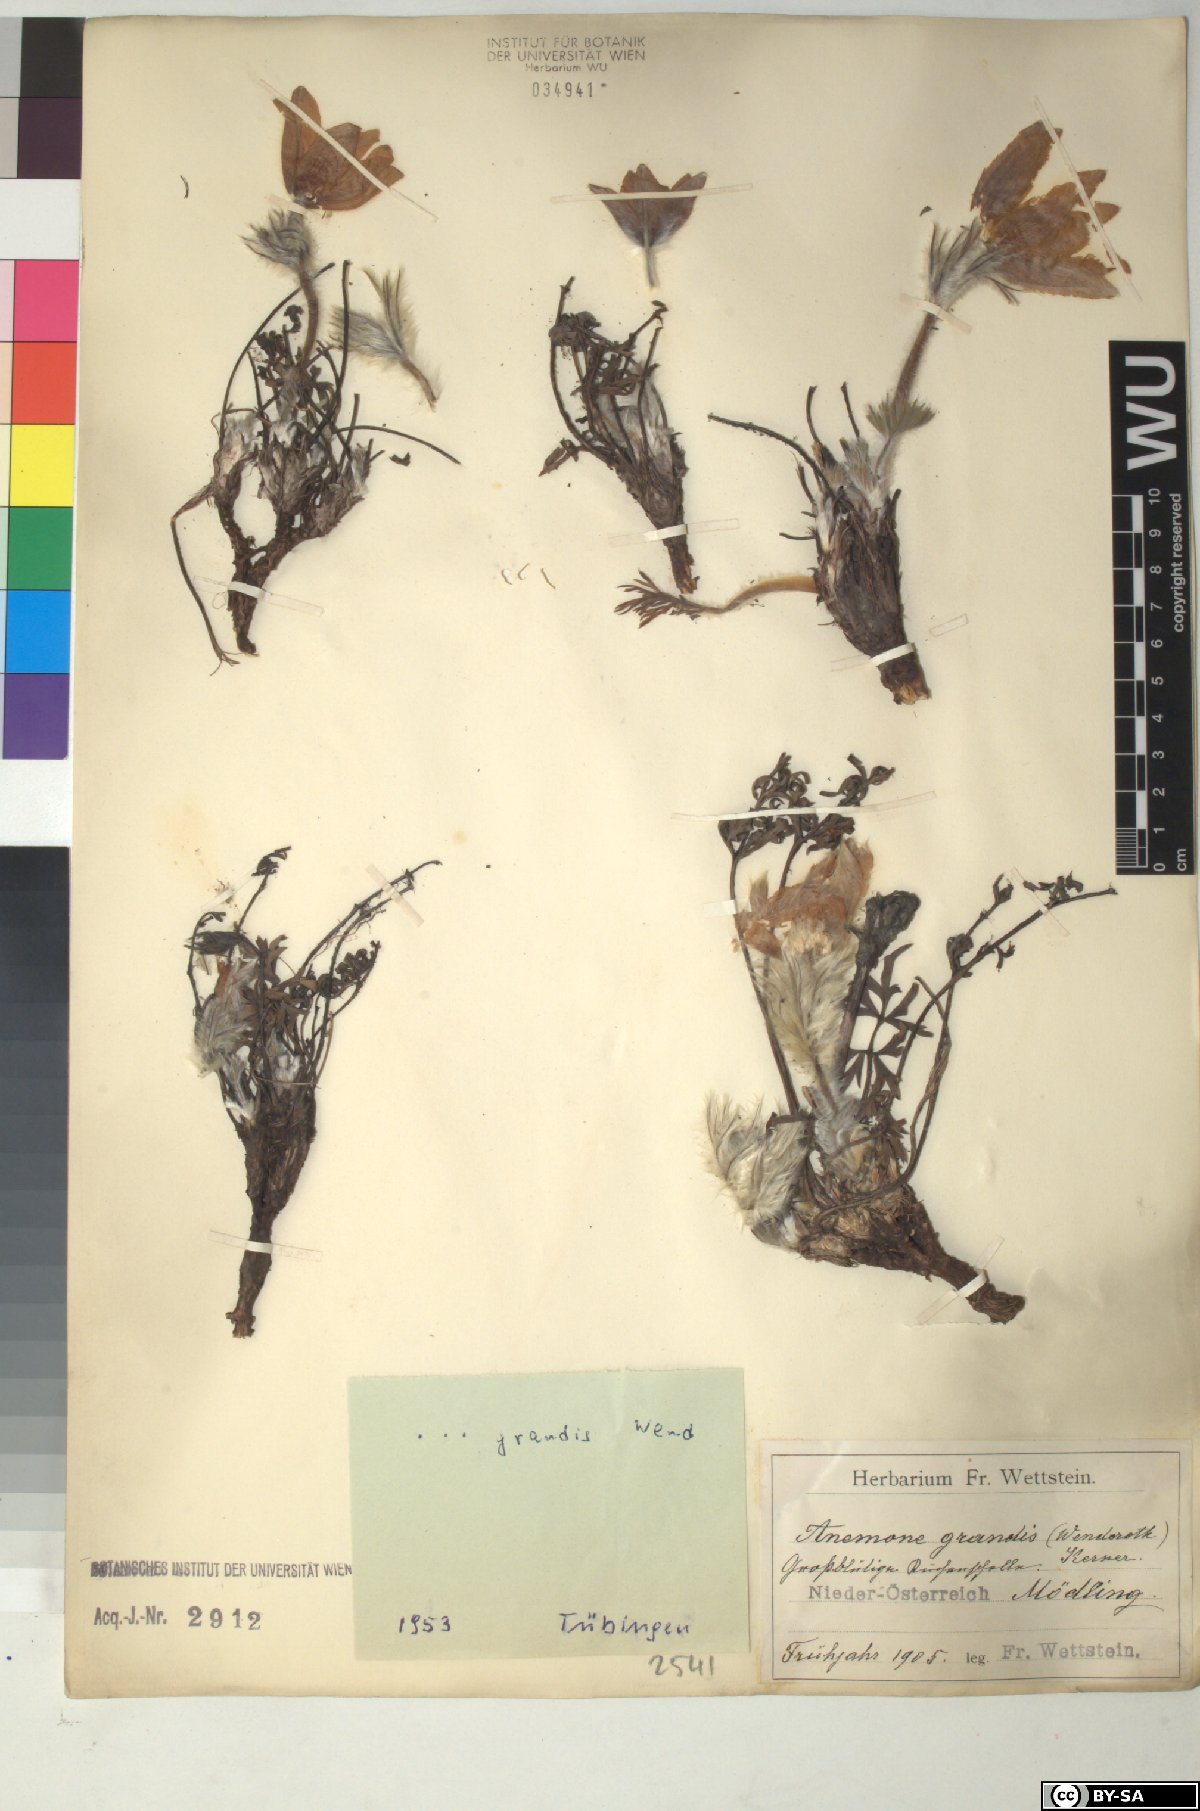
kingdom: Plantae
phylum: Tracheophyta
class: Magnoliopsida
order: Ranunculales
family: Ranunculaceae
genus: Pulsatilla
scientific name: Pulsatilla grandis
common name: Greater pasque flower
